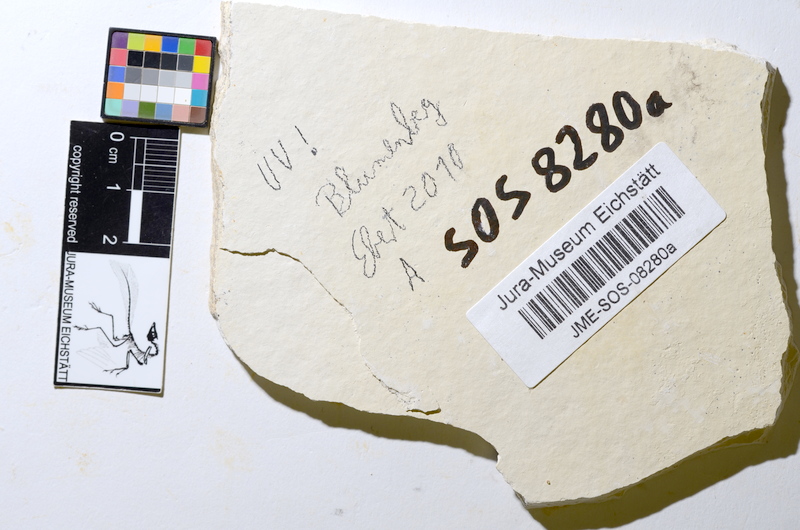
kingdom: Animalia
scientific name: Animalia
